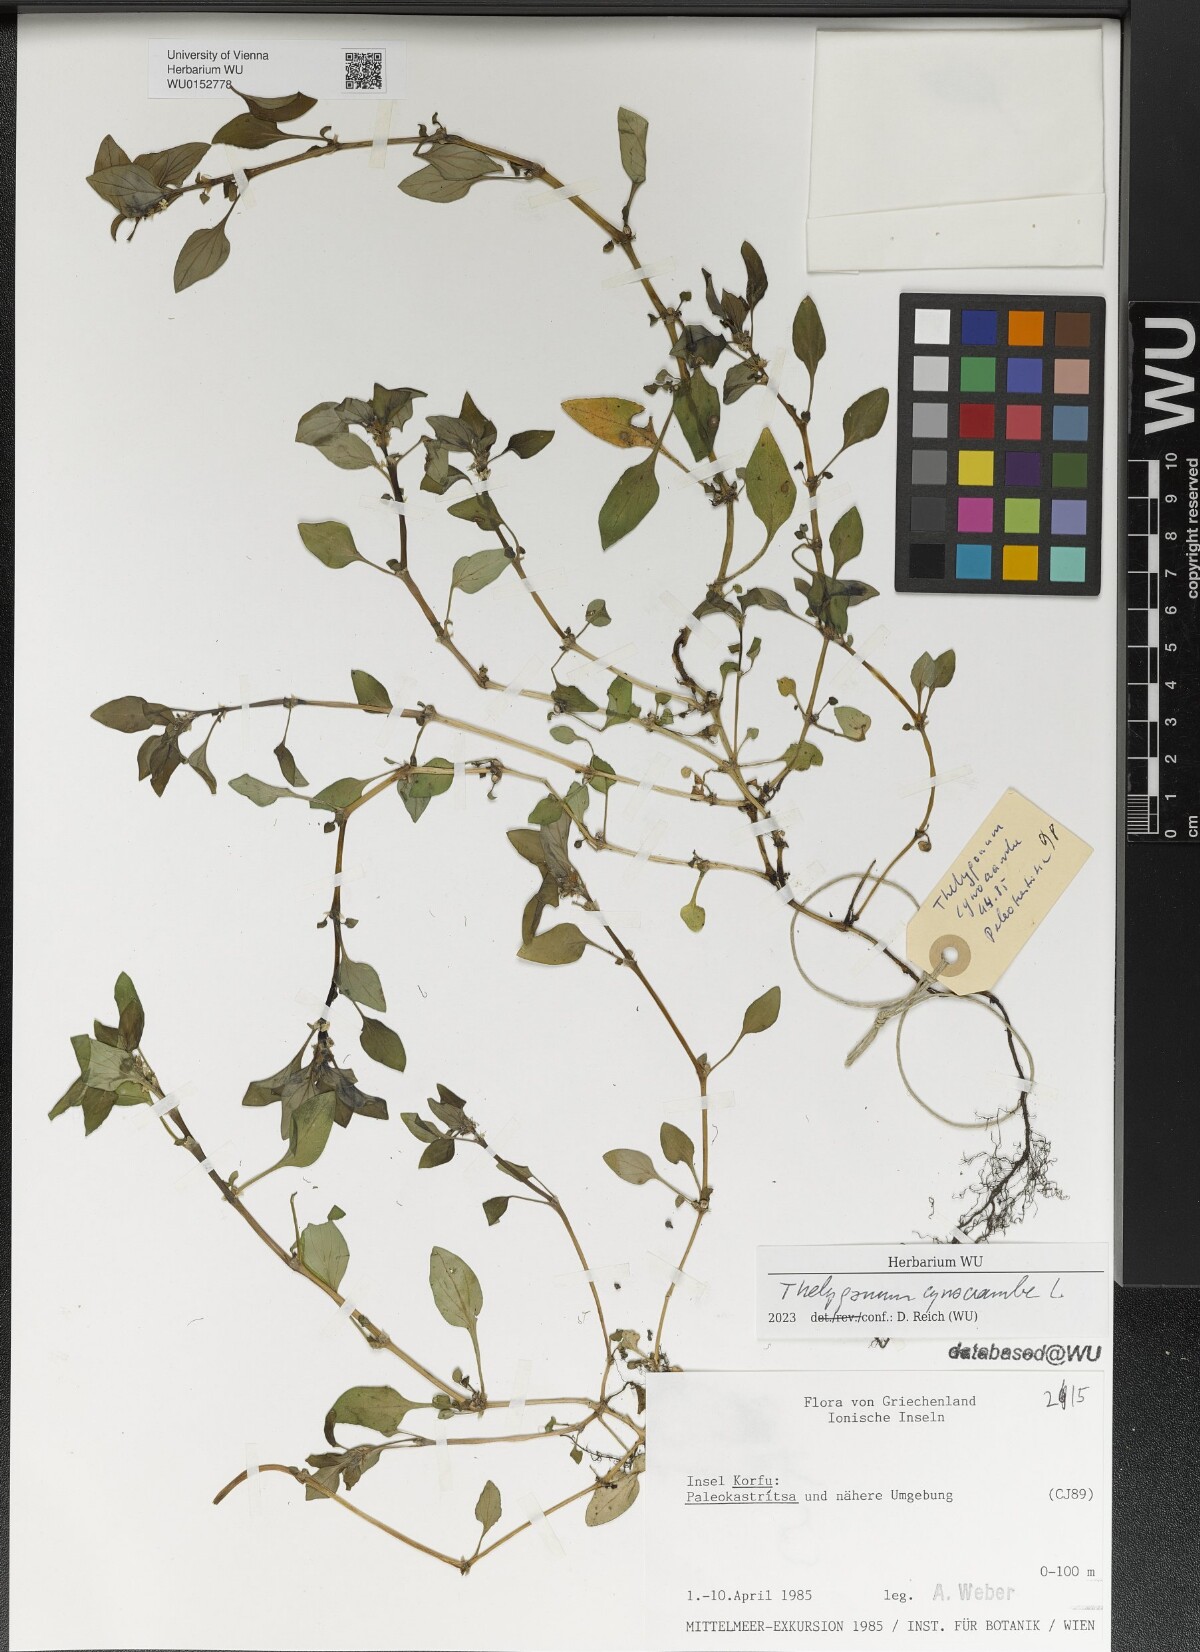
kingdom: Plantae
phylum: Tracheophyta
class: Magnoliopsida
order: Gentianales
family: Rubiaceae
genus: Theligonum
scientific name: Theligonum cynocrambe
